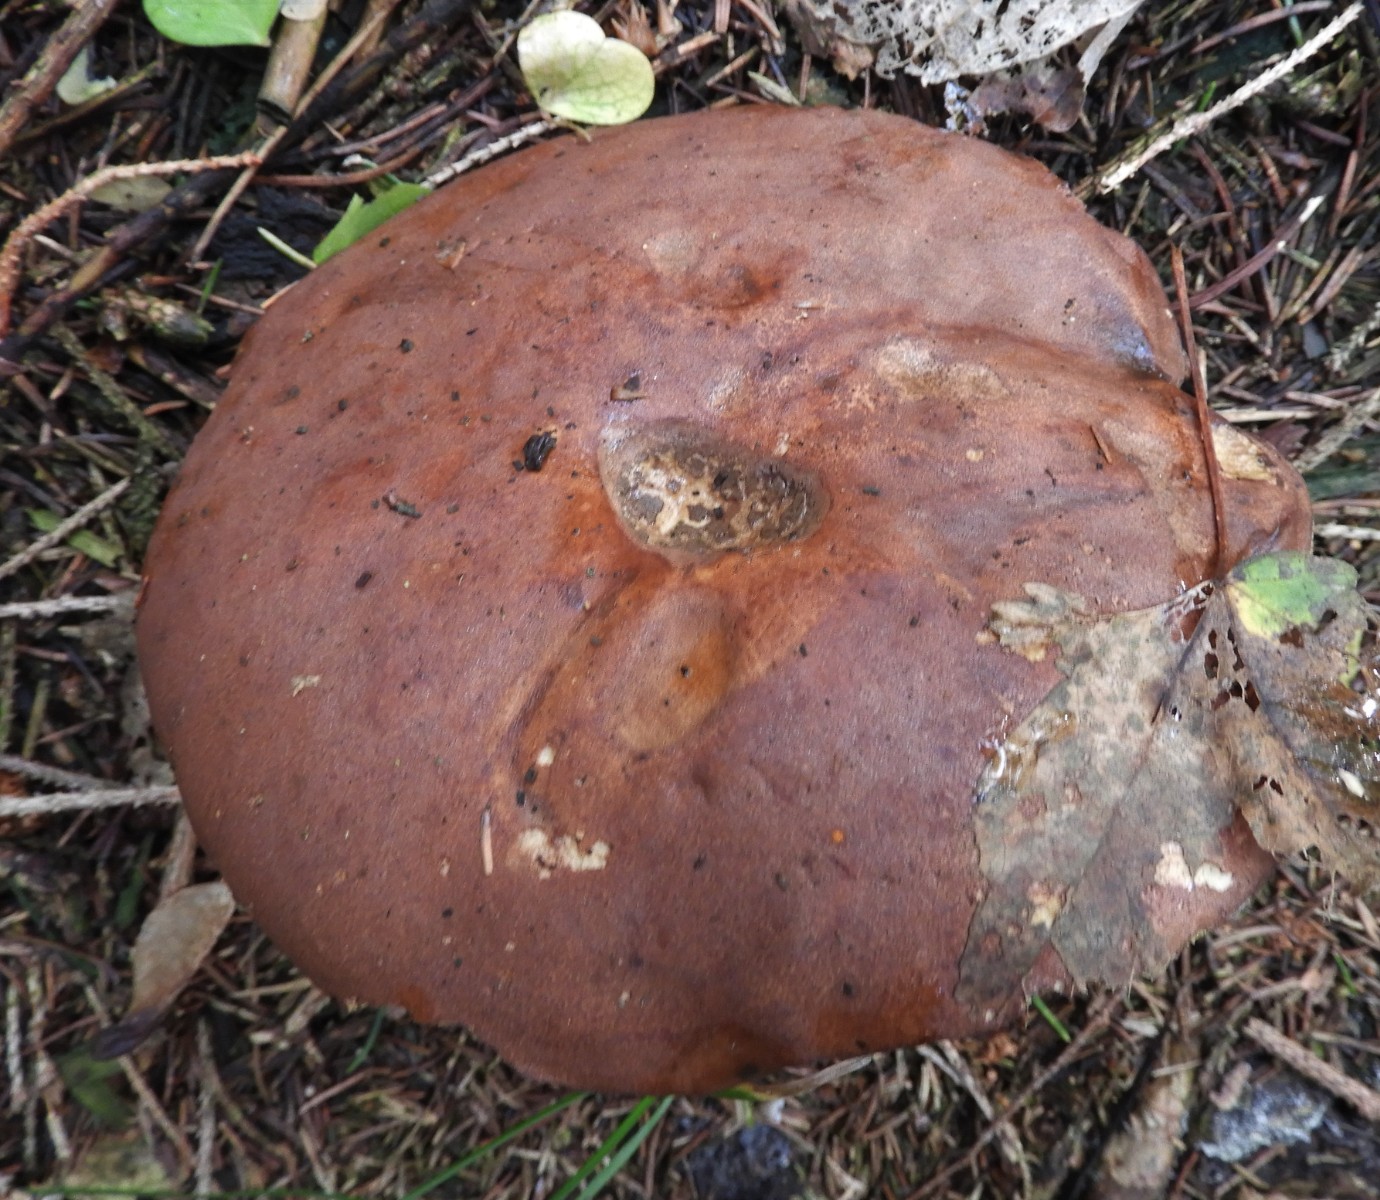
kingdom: Fungi
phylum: Basidiomycota
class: Agaricomycetes
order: Boletales
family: Boletaceae
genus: Imleria
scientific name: Imleria badia
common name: brunstokket rørhat
